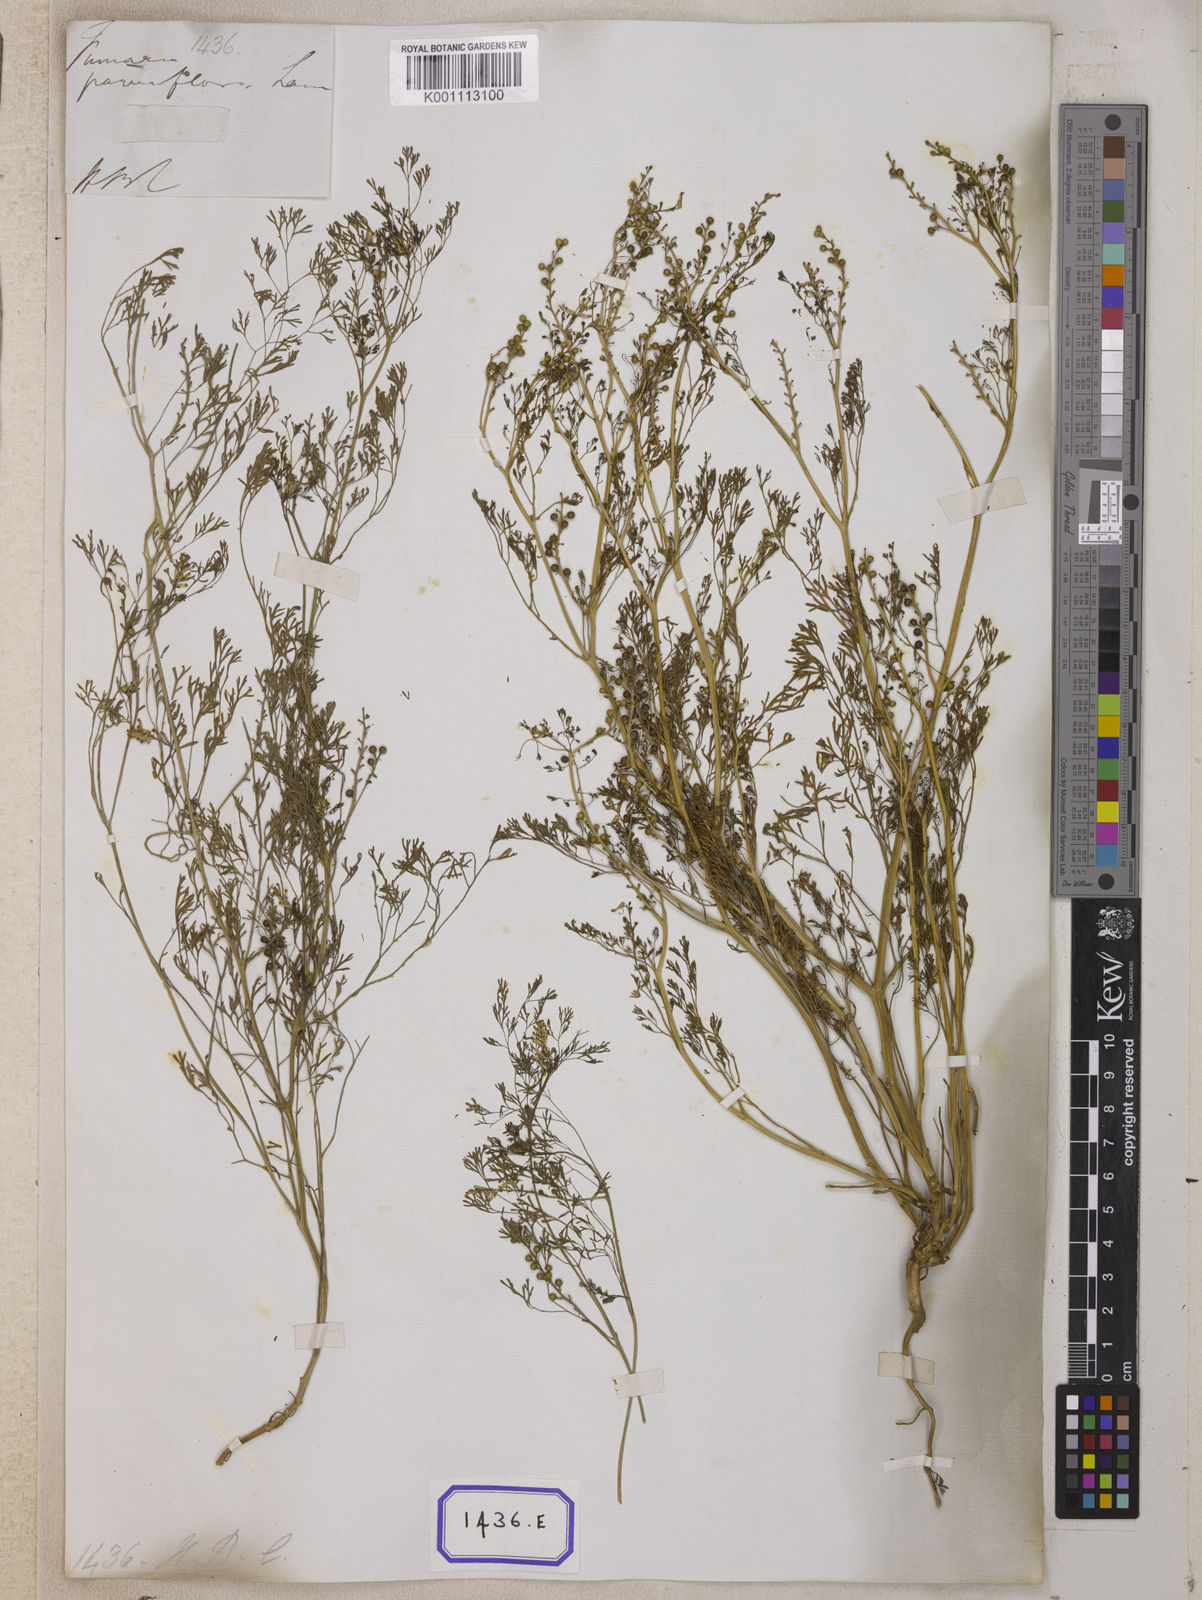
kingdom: Plantae
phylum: Tracheophyta
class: Magnoliopsida
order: Ranunculales
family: Papaveraceae
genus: Fumaria
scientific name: Fumaria parviflora
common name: Fine-leaved fumitory
